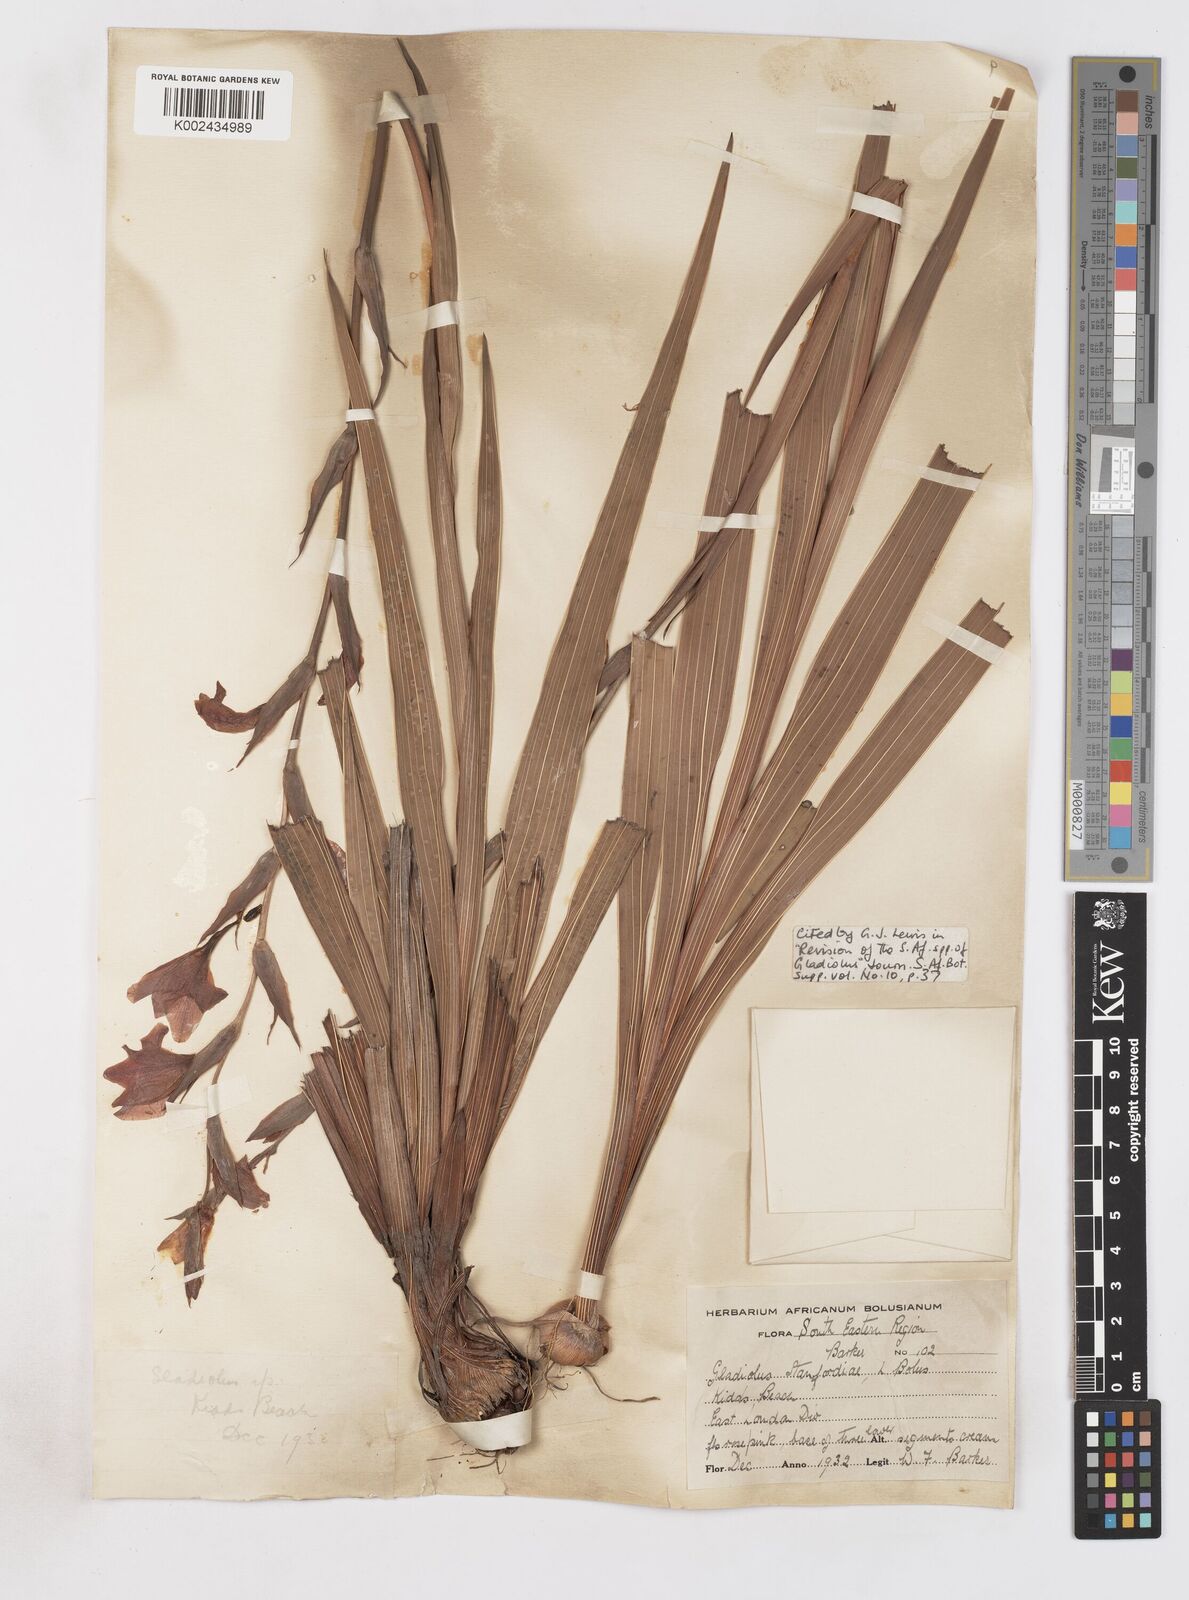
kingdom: Plantae
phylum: Tracheophyta
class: Liliopsida
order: Asparagales
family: Iridaceae
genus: Gladiolus
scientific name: Gladiolus ochroleucus
